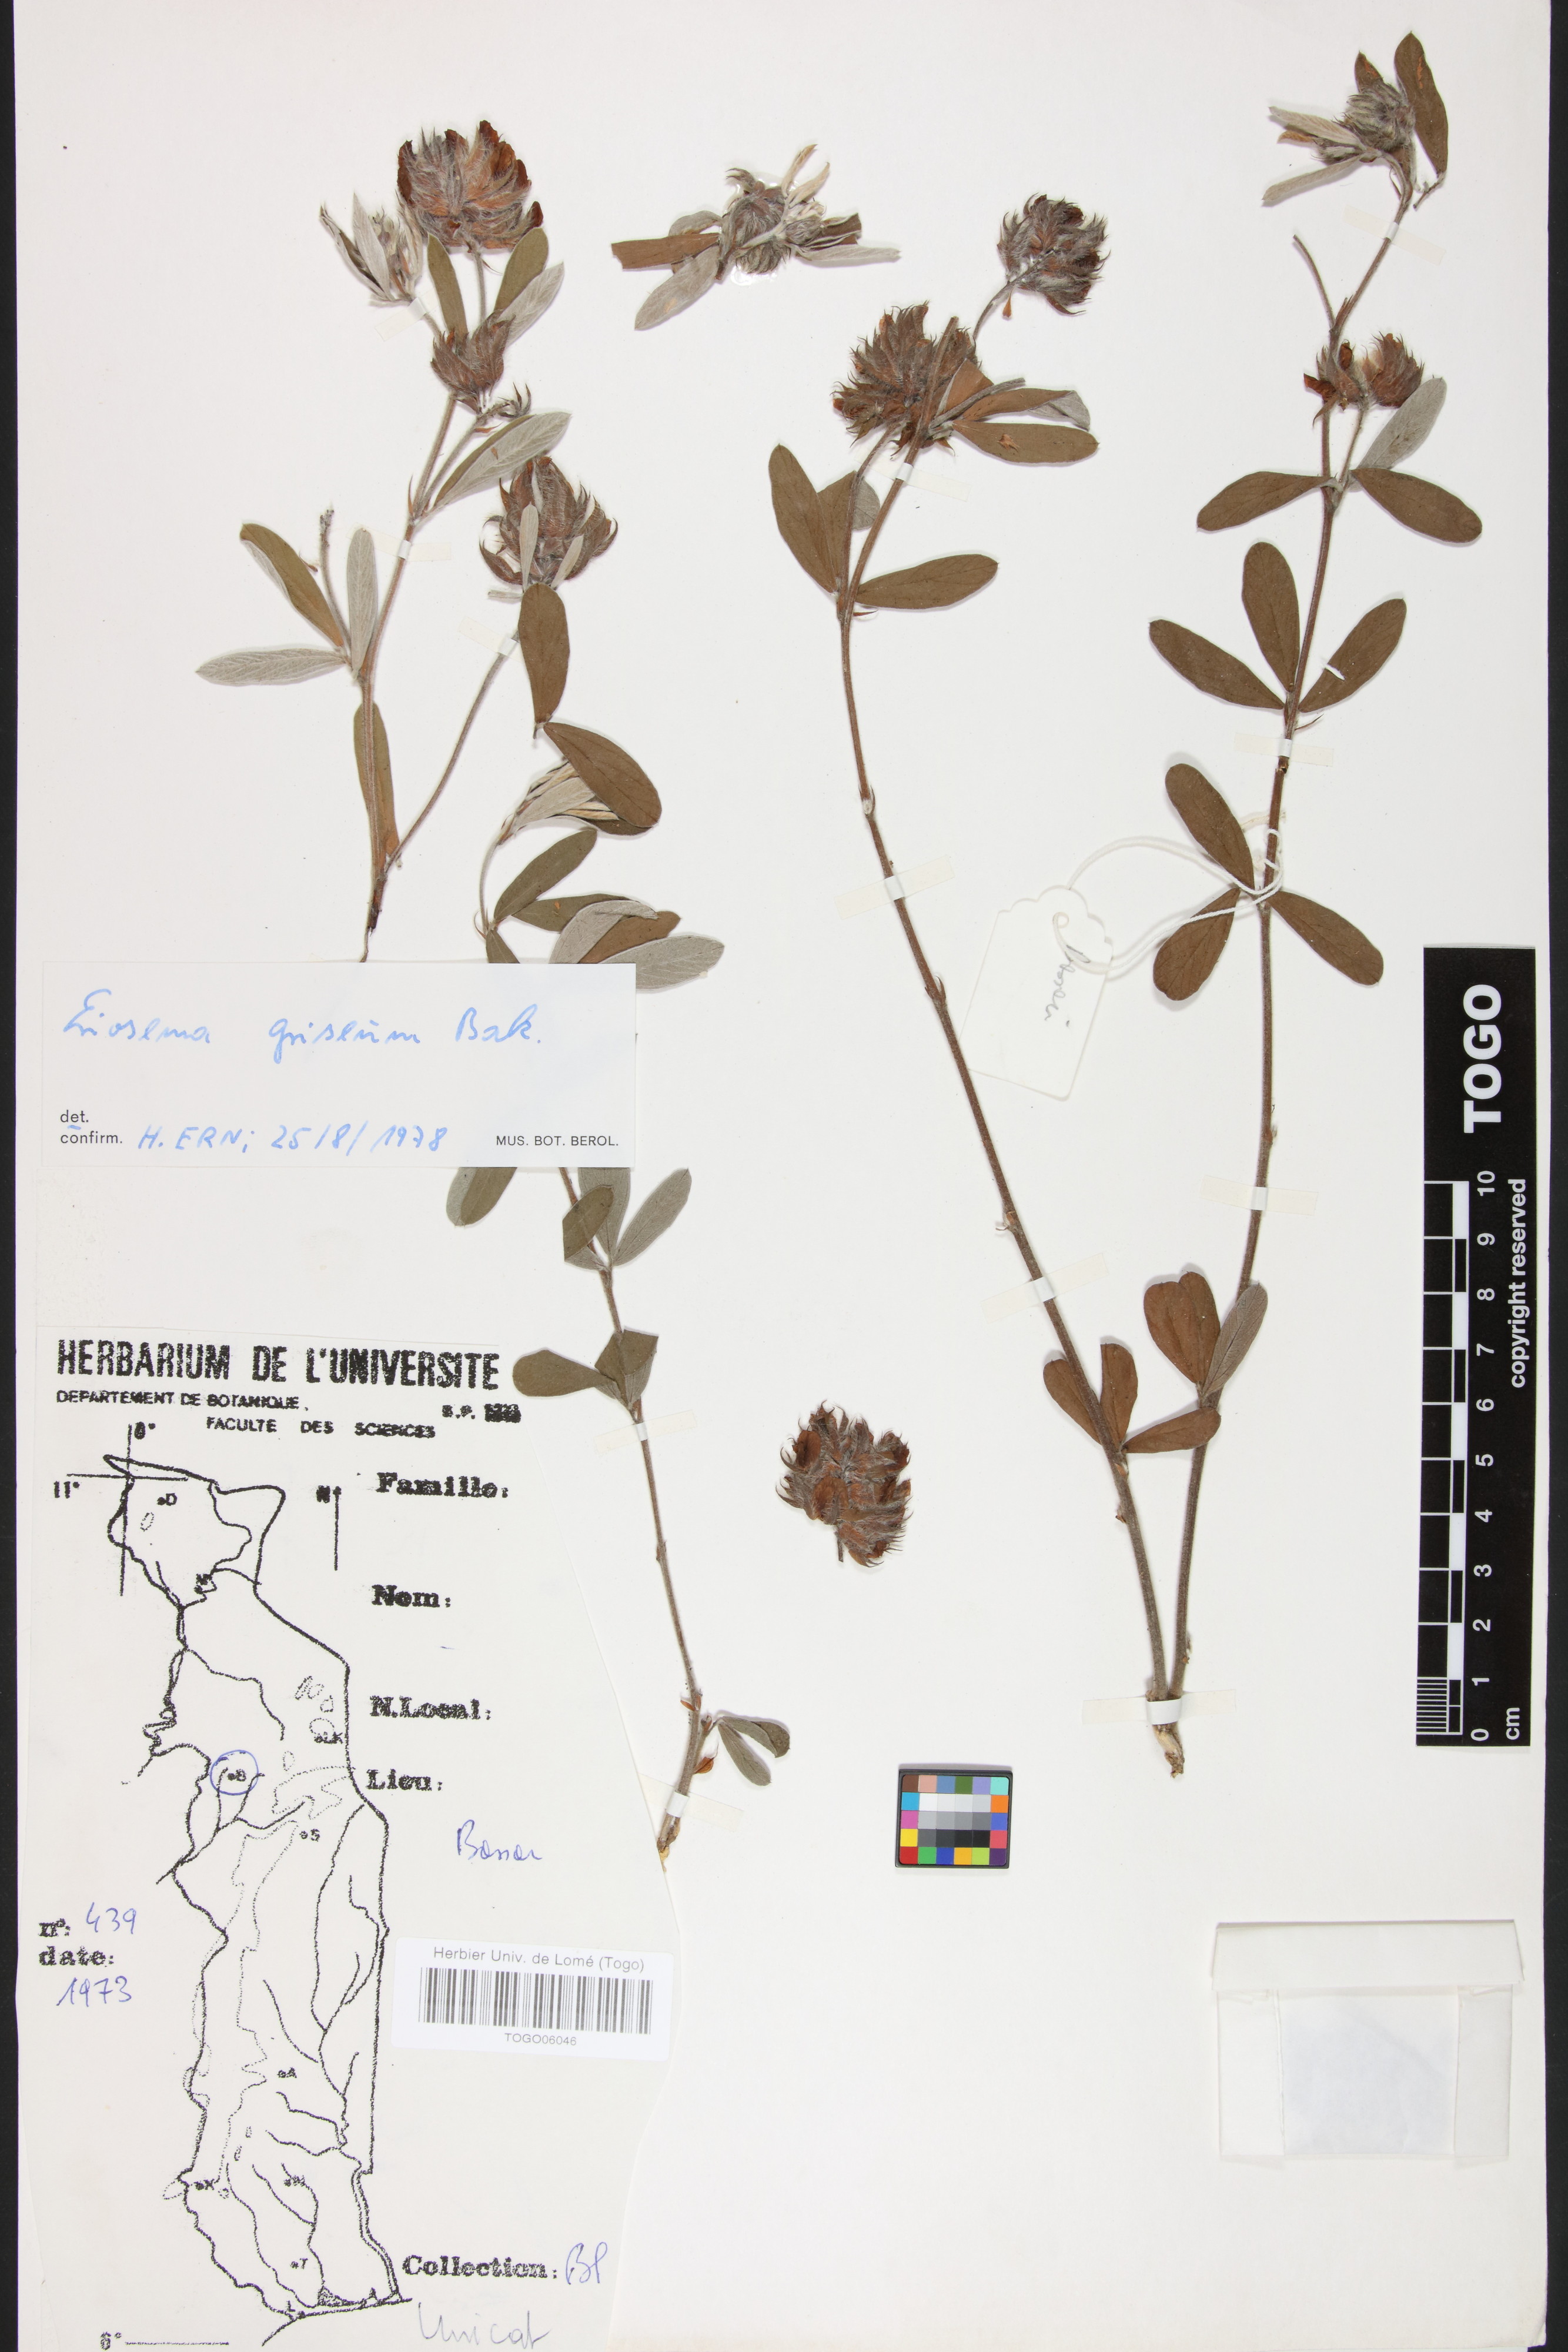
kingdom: Plantae
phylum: Tracheophyta
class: Magnoliopsida
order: Fabales
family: Fabaceae
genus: Eriosema
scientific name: Eriosema griseum
